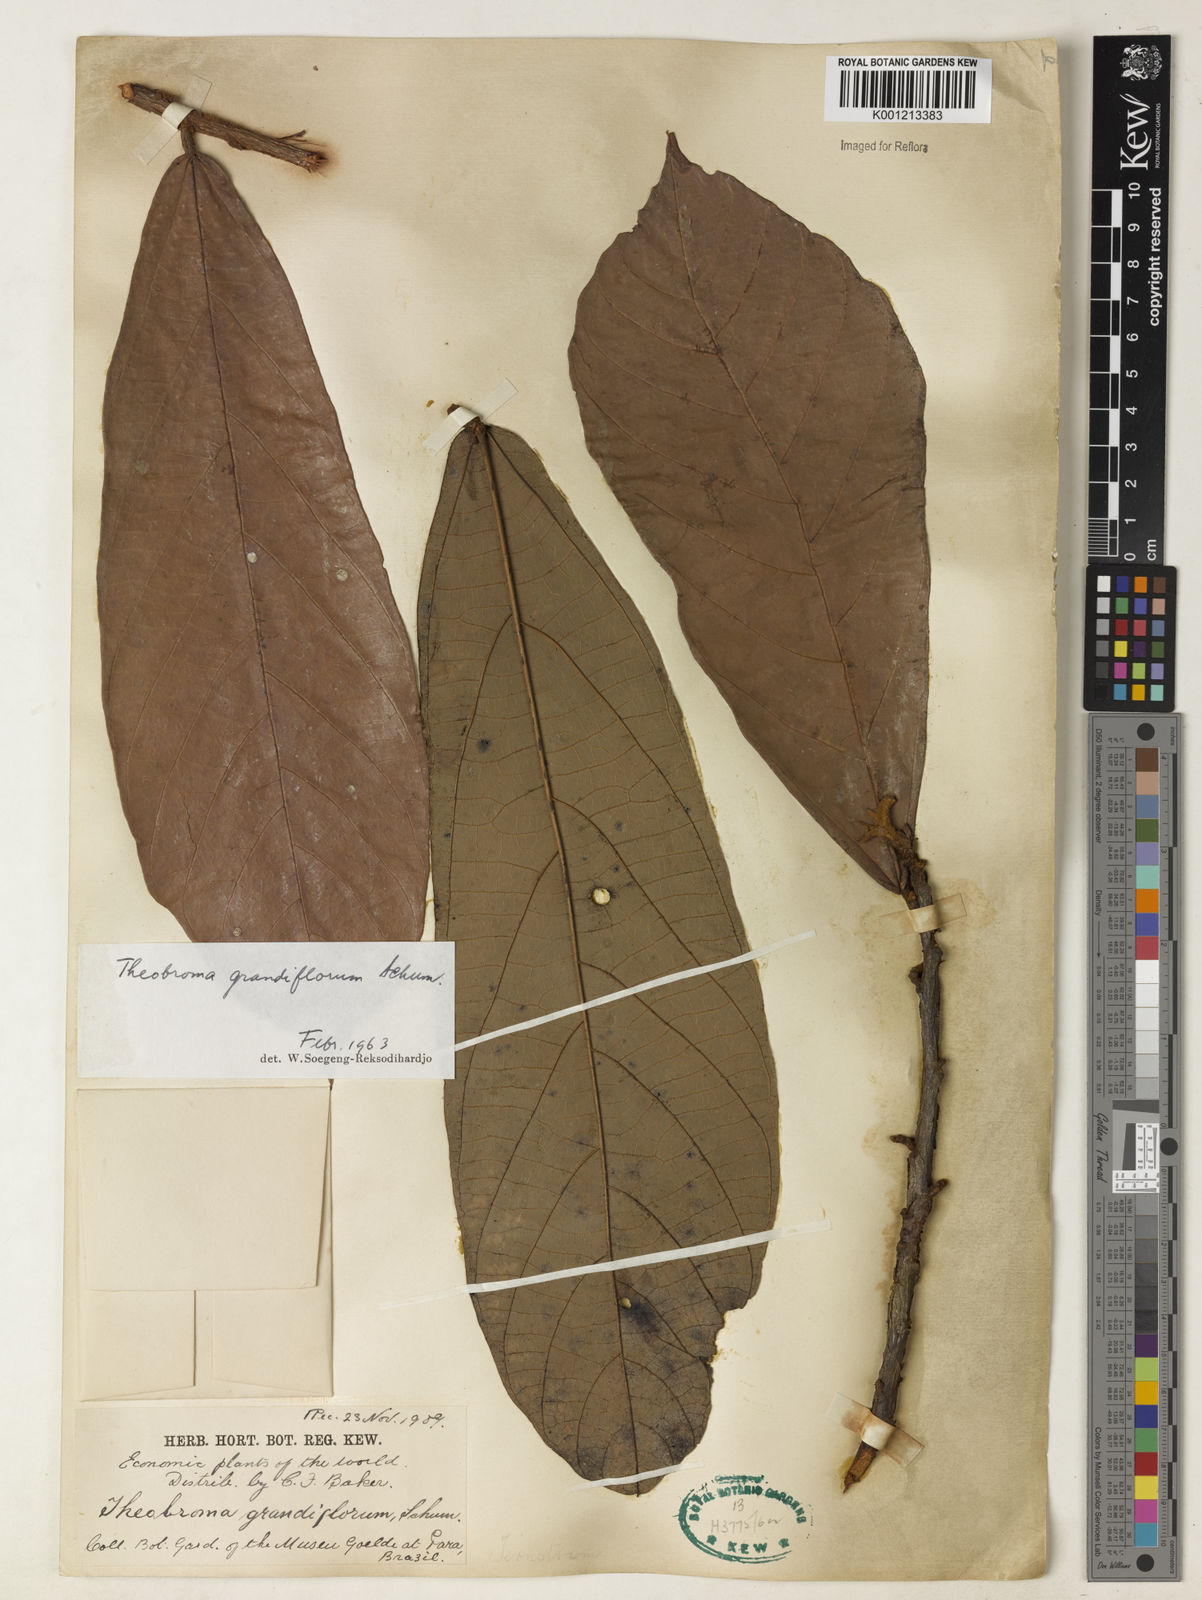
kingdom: Plantae
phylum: Tracheophyta
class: Magnoliopsida
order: Malvales
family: Malvaceae
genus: Theobroma
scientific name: Theobroma grandiflorum
